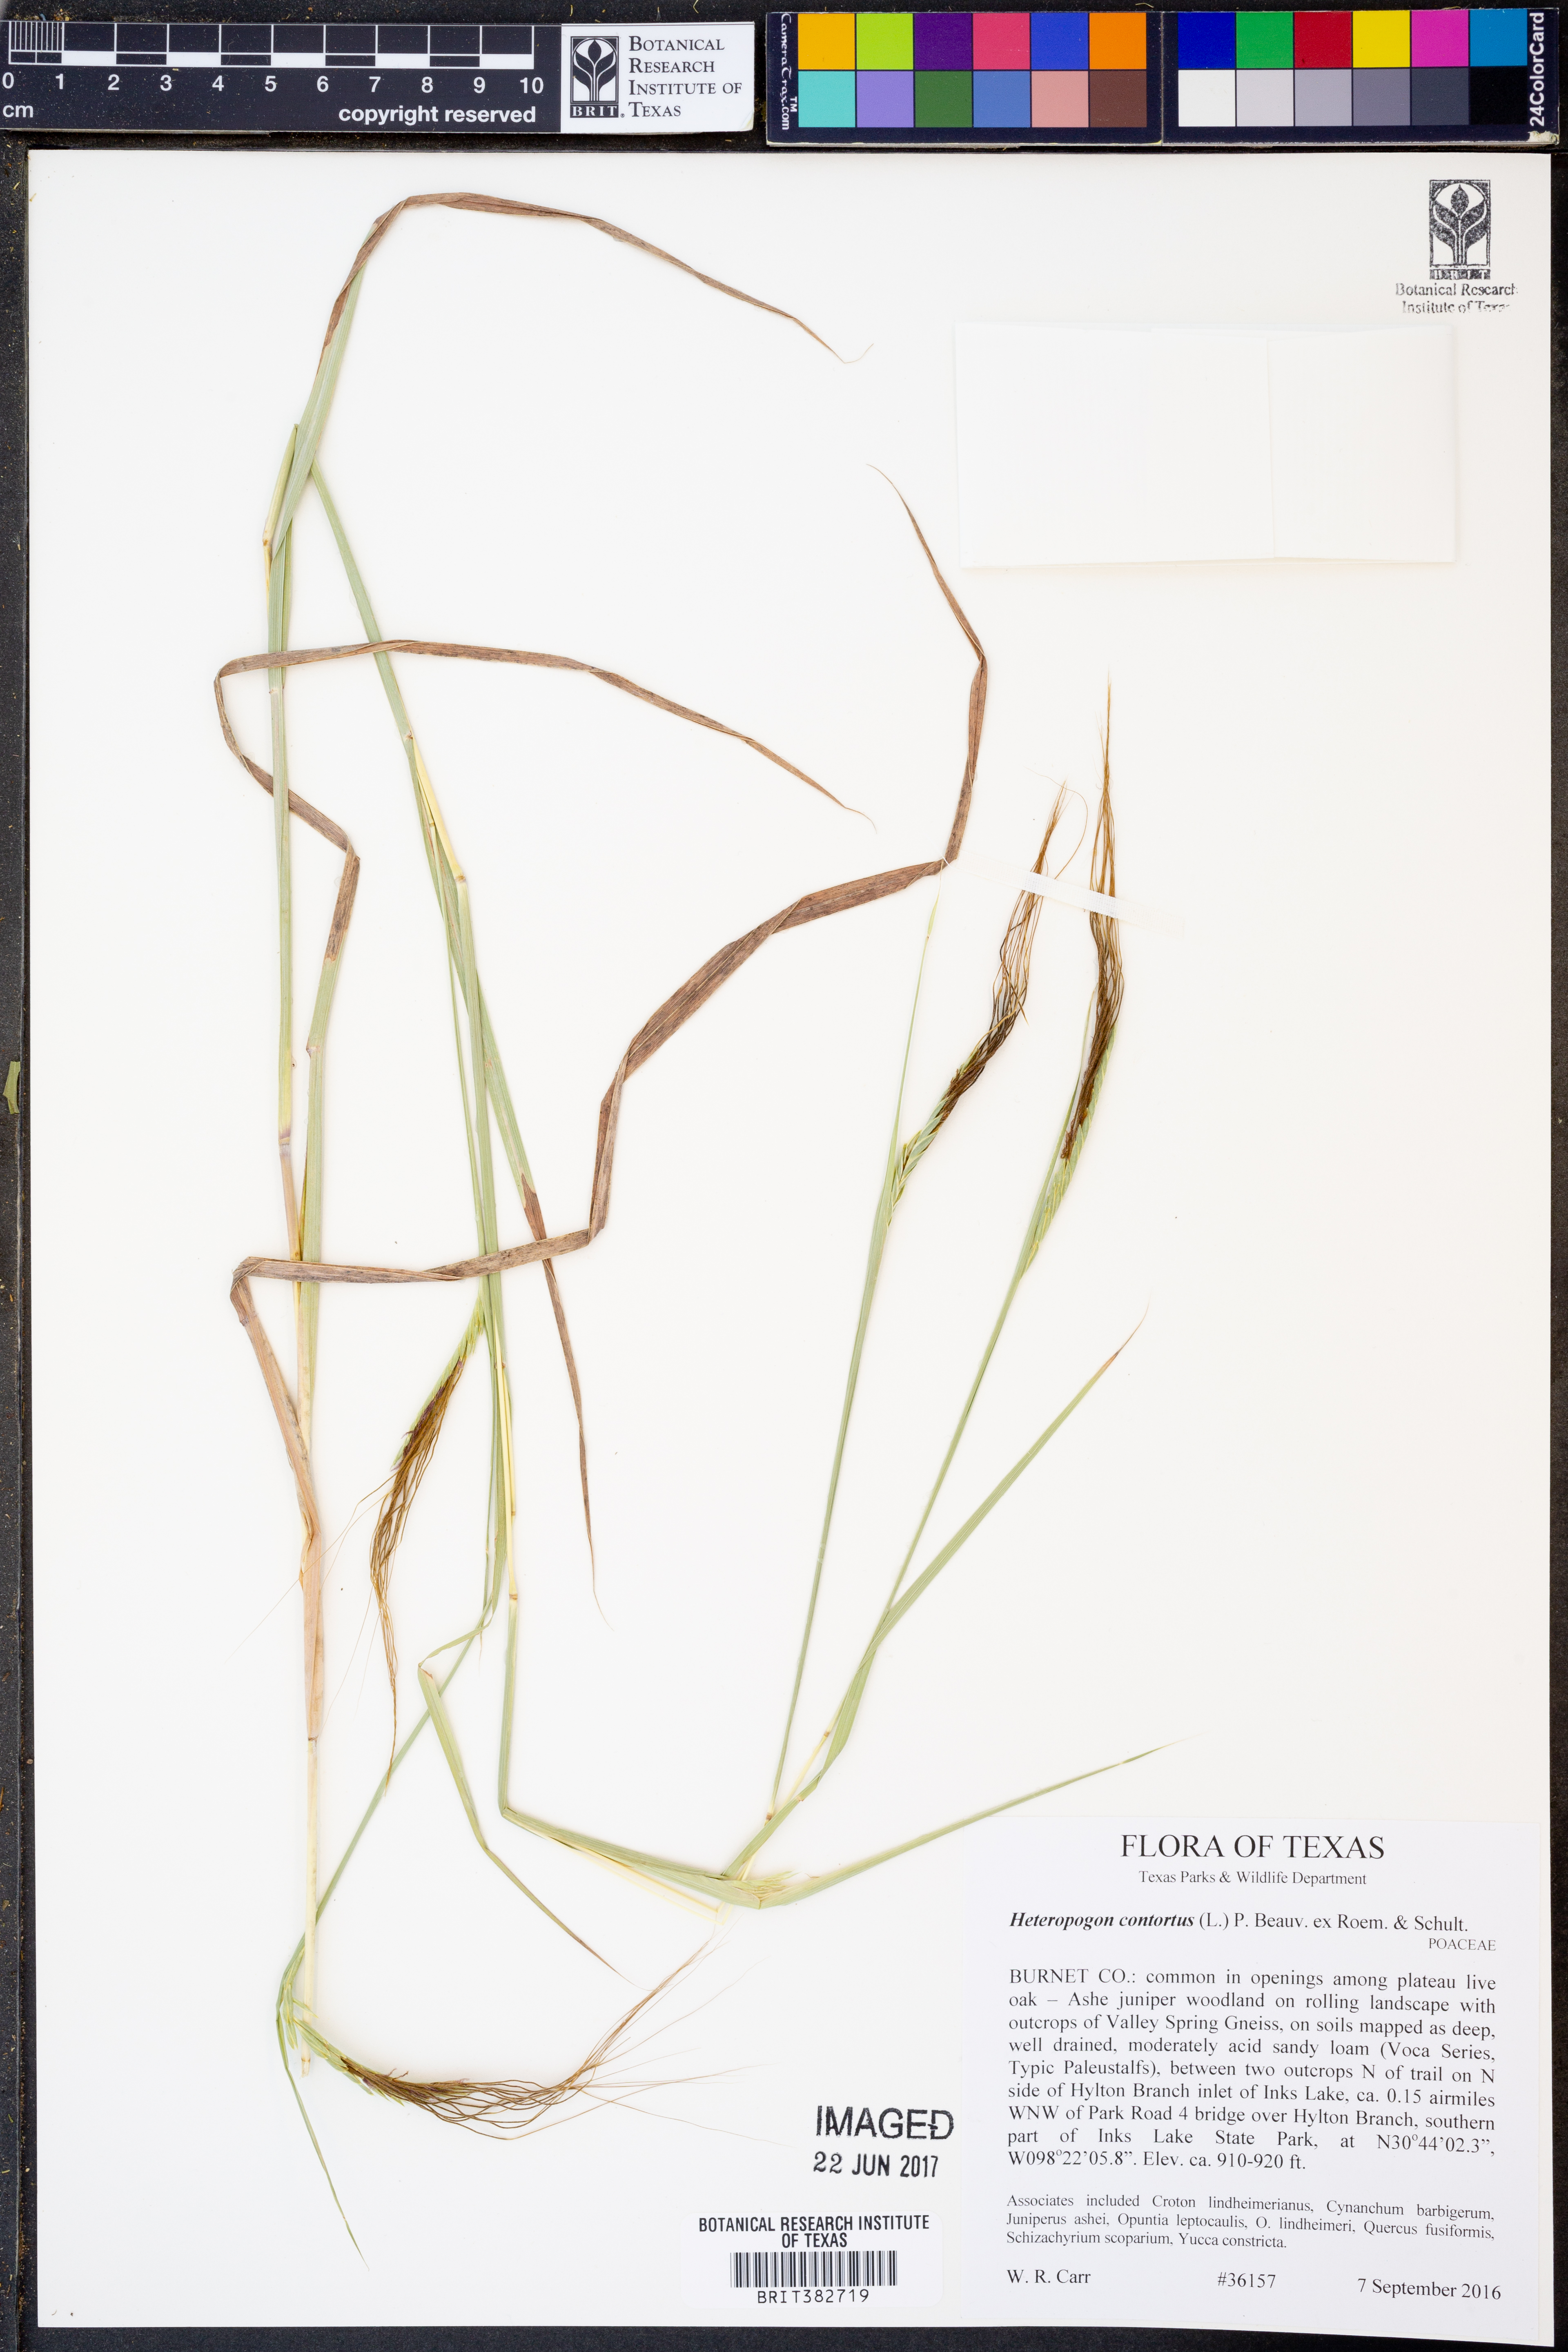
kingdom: Plantae
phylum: Tracheophyta
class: Liliopsida
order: Poales
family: Poaceae
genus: Heteropogon
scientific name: Heteropogon contortus
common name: Tanglehead
